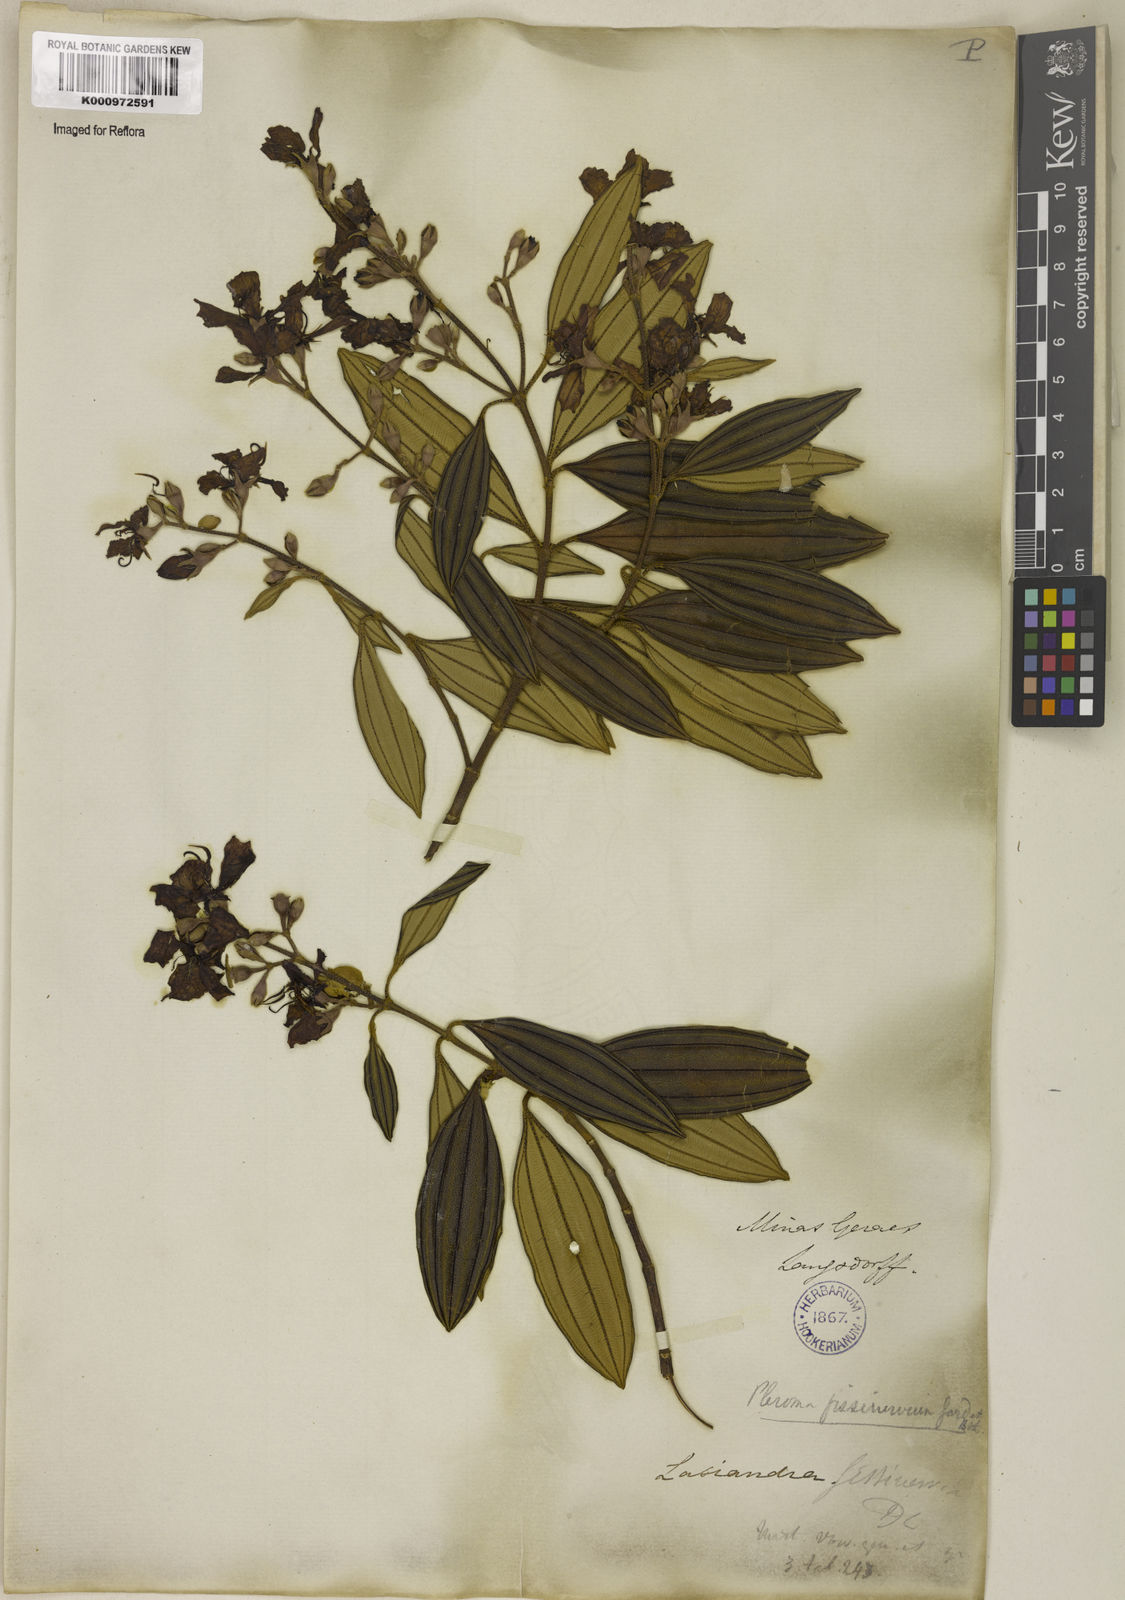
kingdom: Plantae
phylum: Tracheophyta
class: Magnoliopsida
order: Myrtales
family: Melastomataceae
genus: Pleroma
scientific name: Pleroma fissinervium
